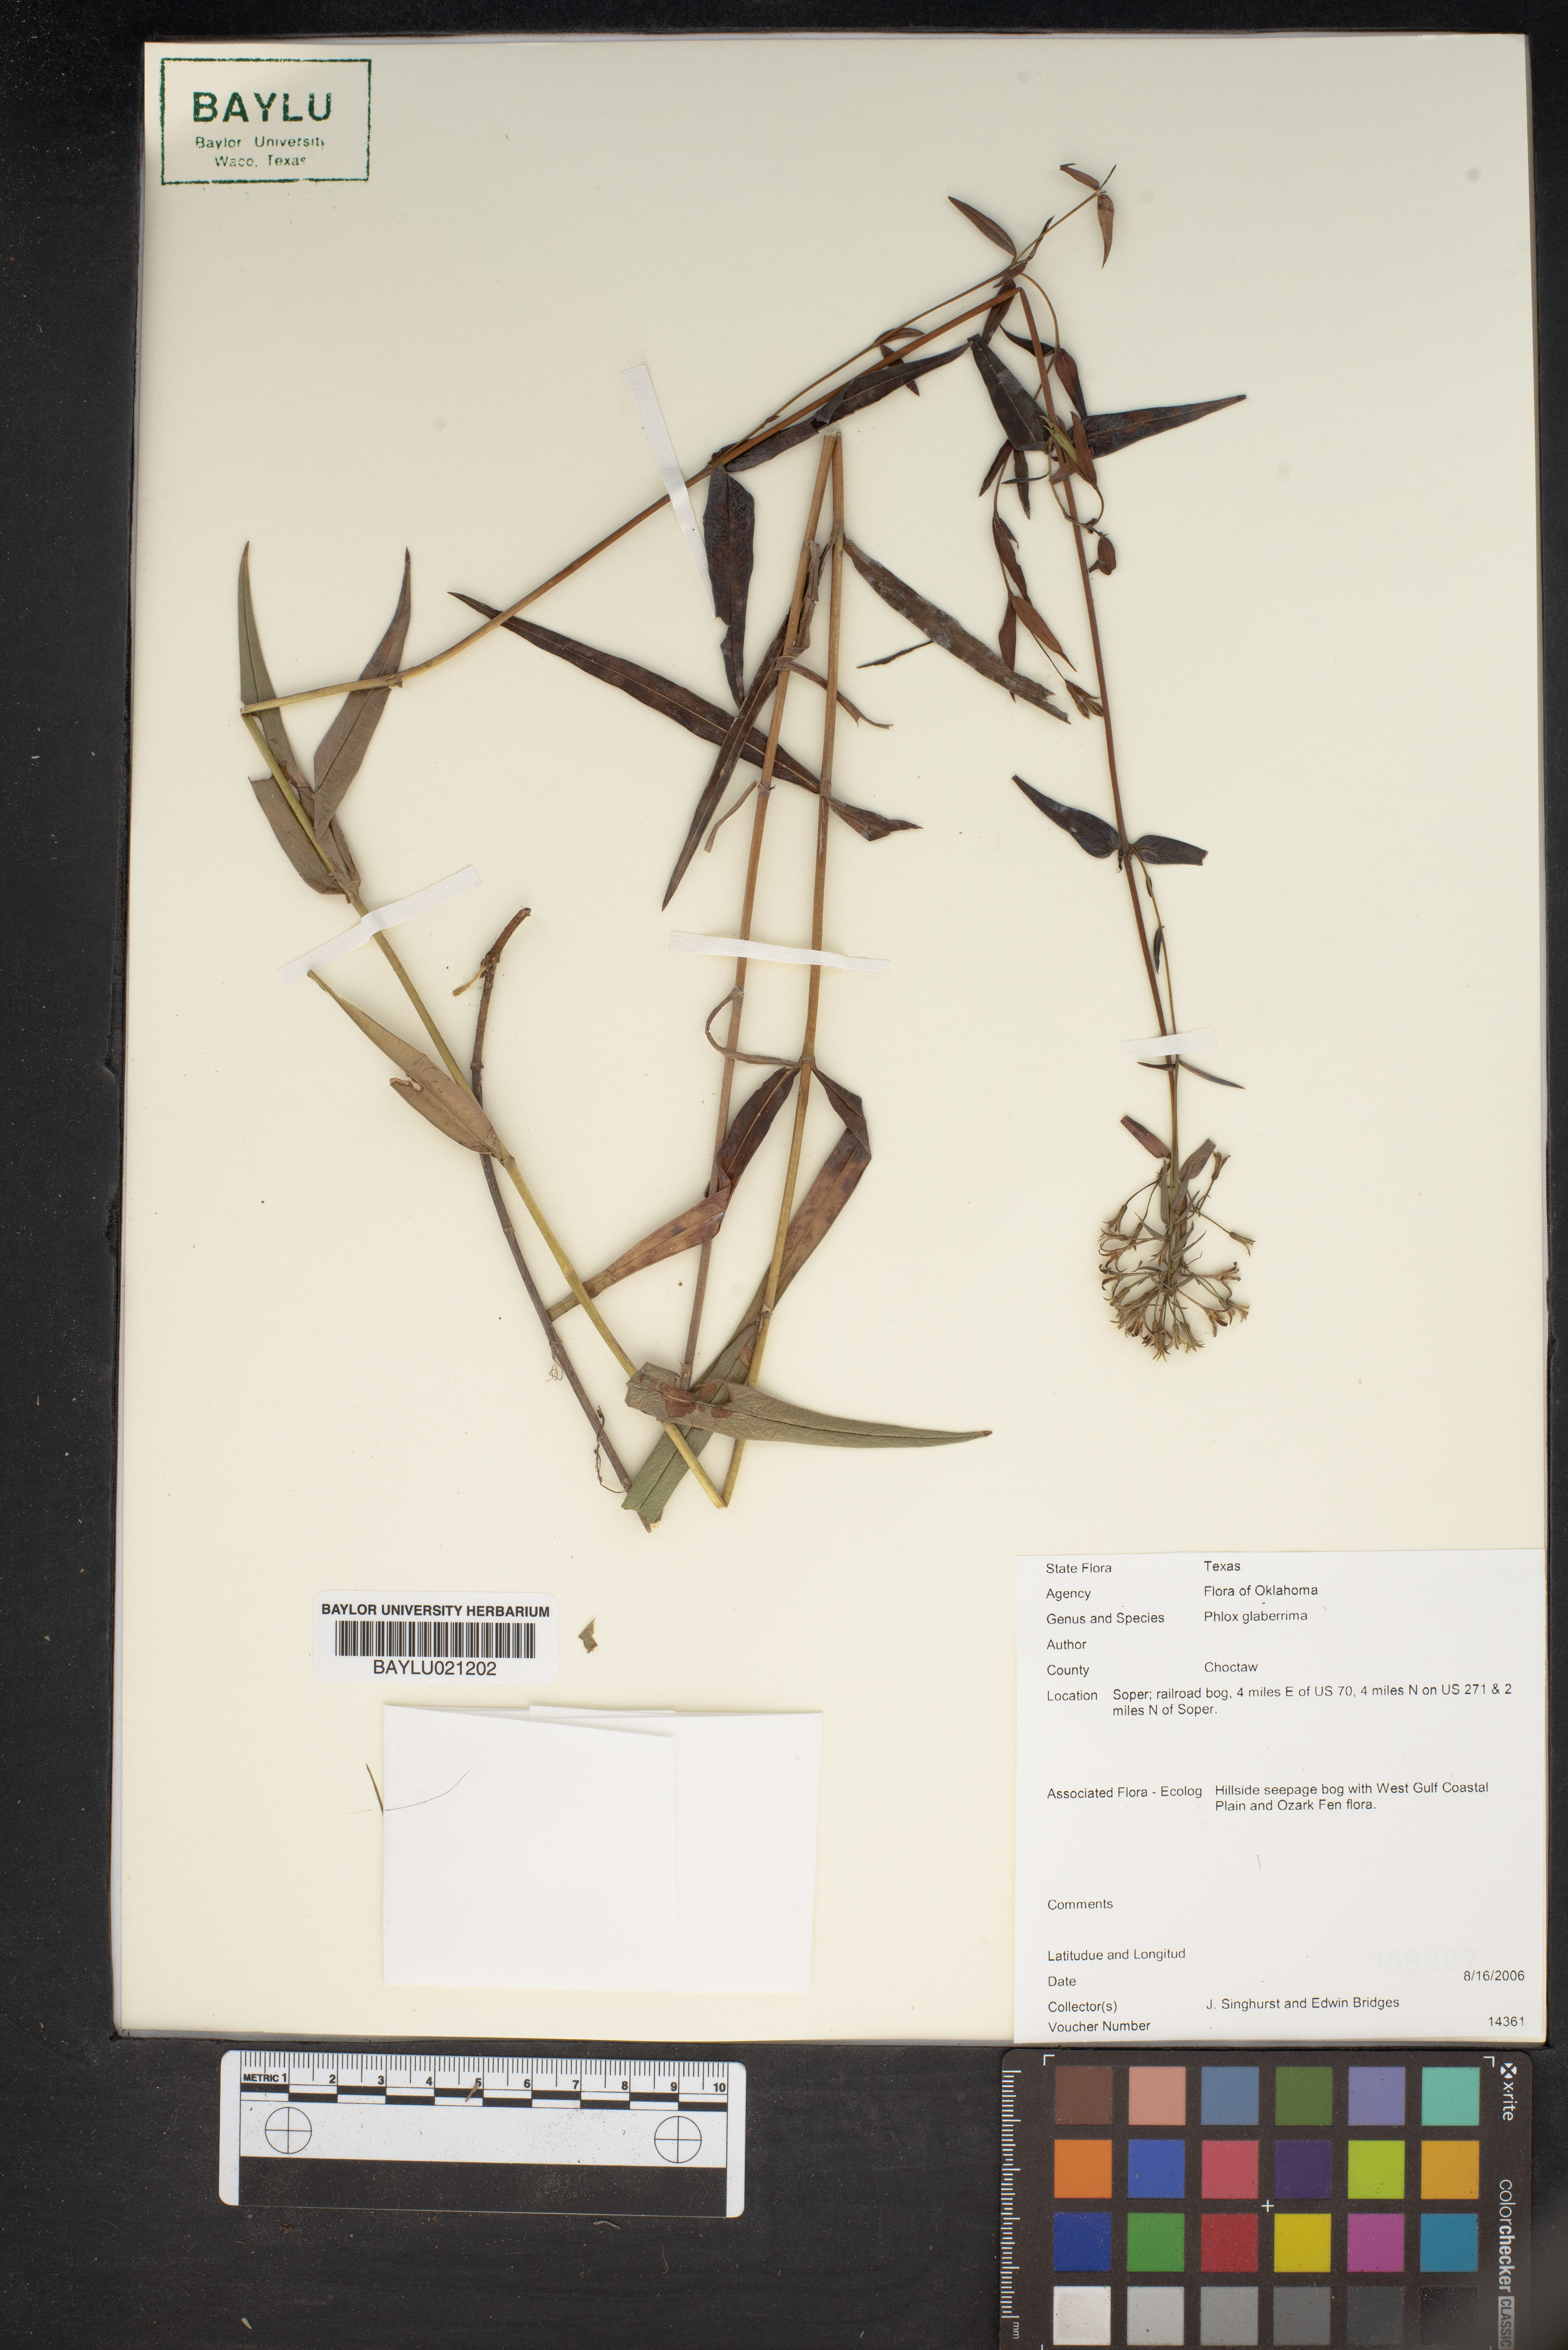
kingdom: Plantae
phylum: Tracheophyta
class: Magnoliopsida
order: Ericales
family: Polemoniaceae
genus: Phlox
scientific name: Phlox glaberrima
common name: Smooth phlox
